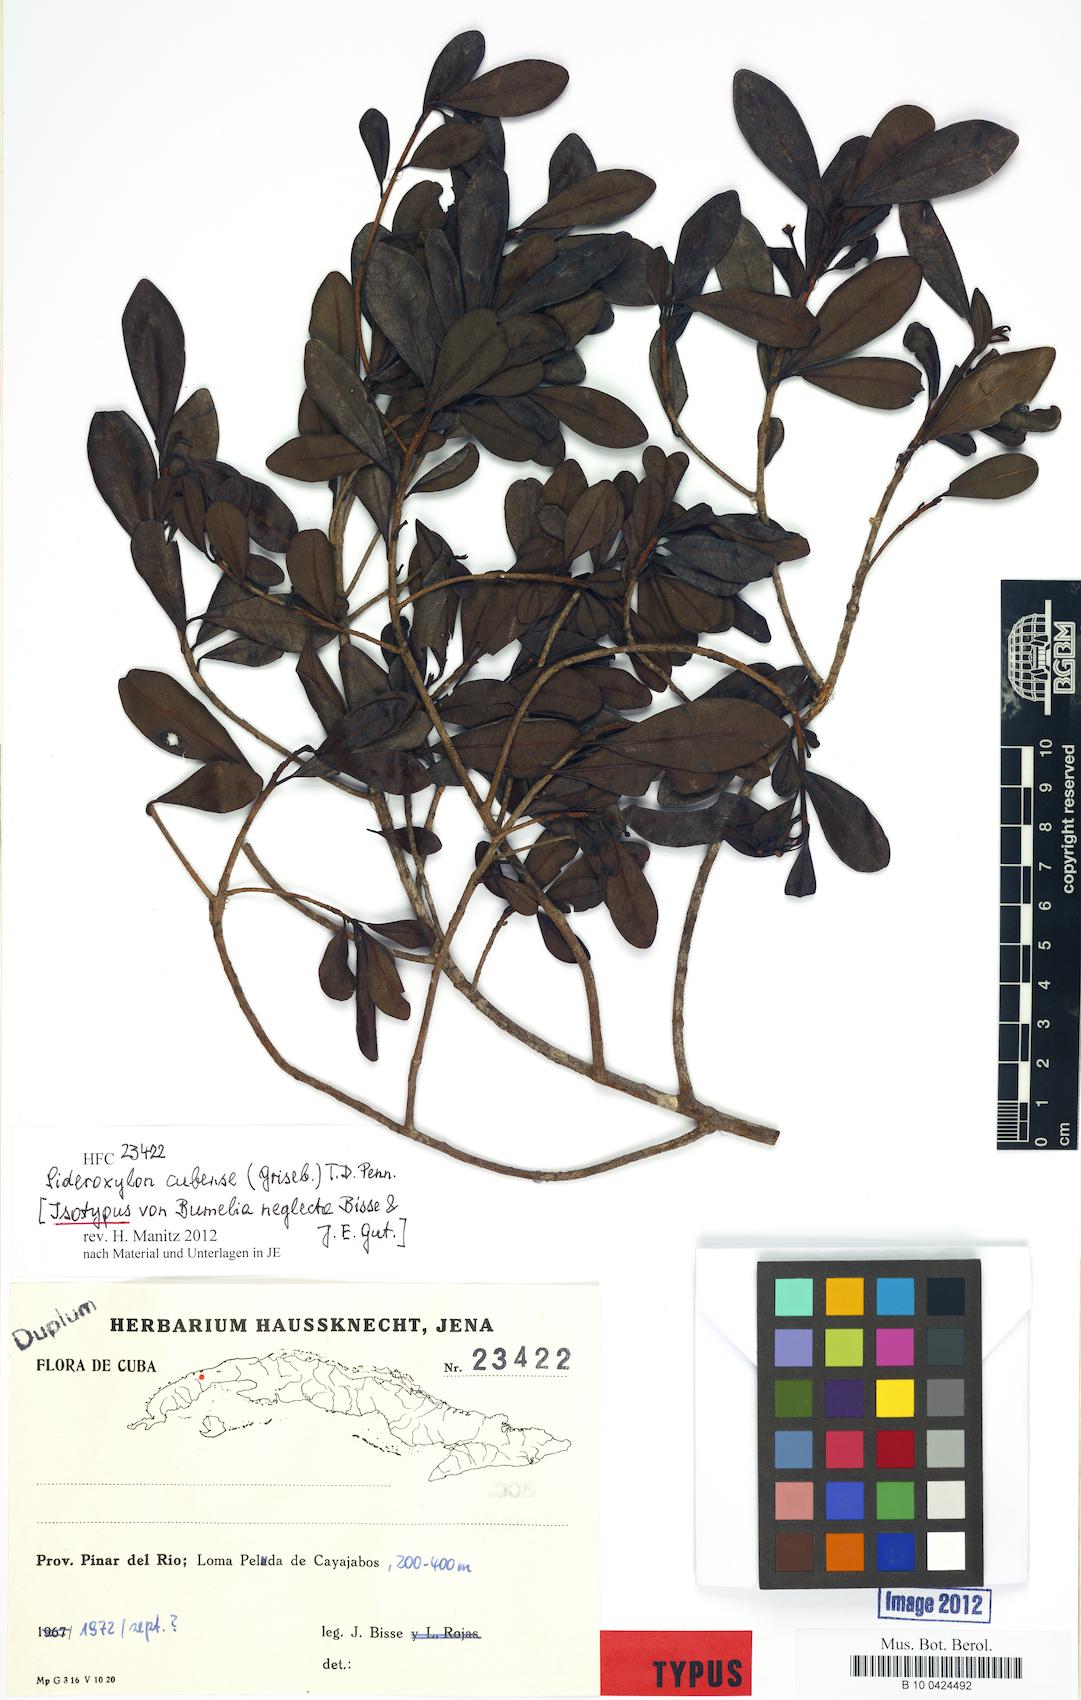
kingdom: Plantae
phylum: Tracheophyta
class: Magnoliopsida
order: Ericales
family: Sapotaceae
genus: Sideroxylon
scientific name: Sideroxylon cubense
